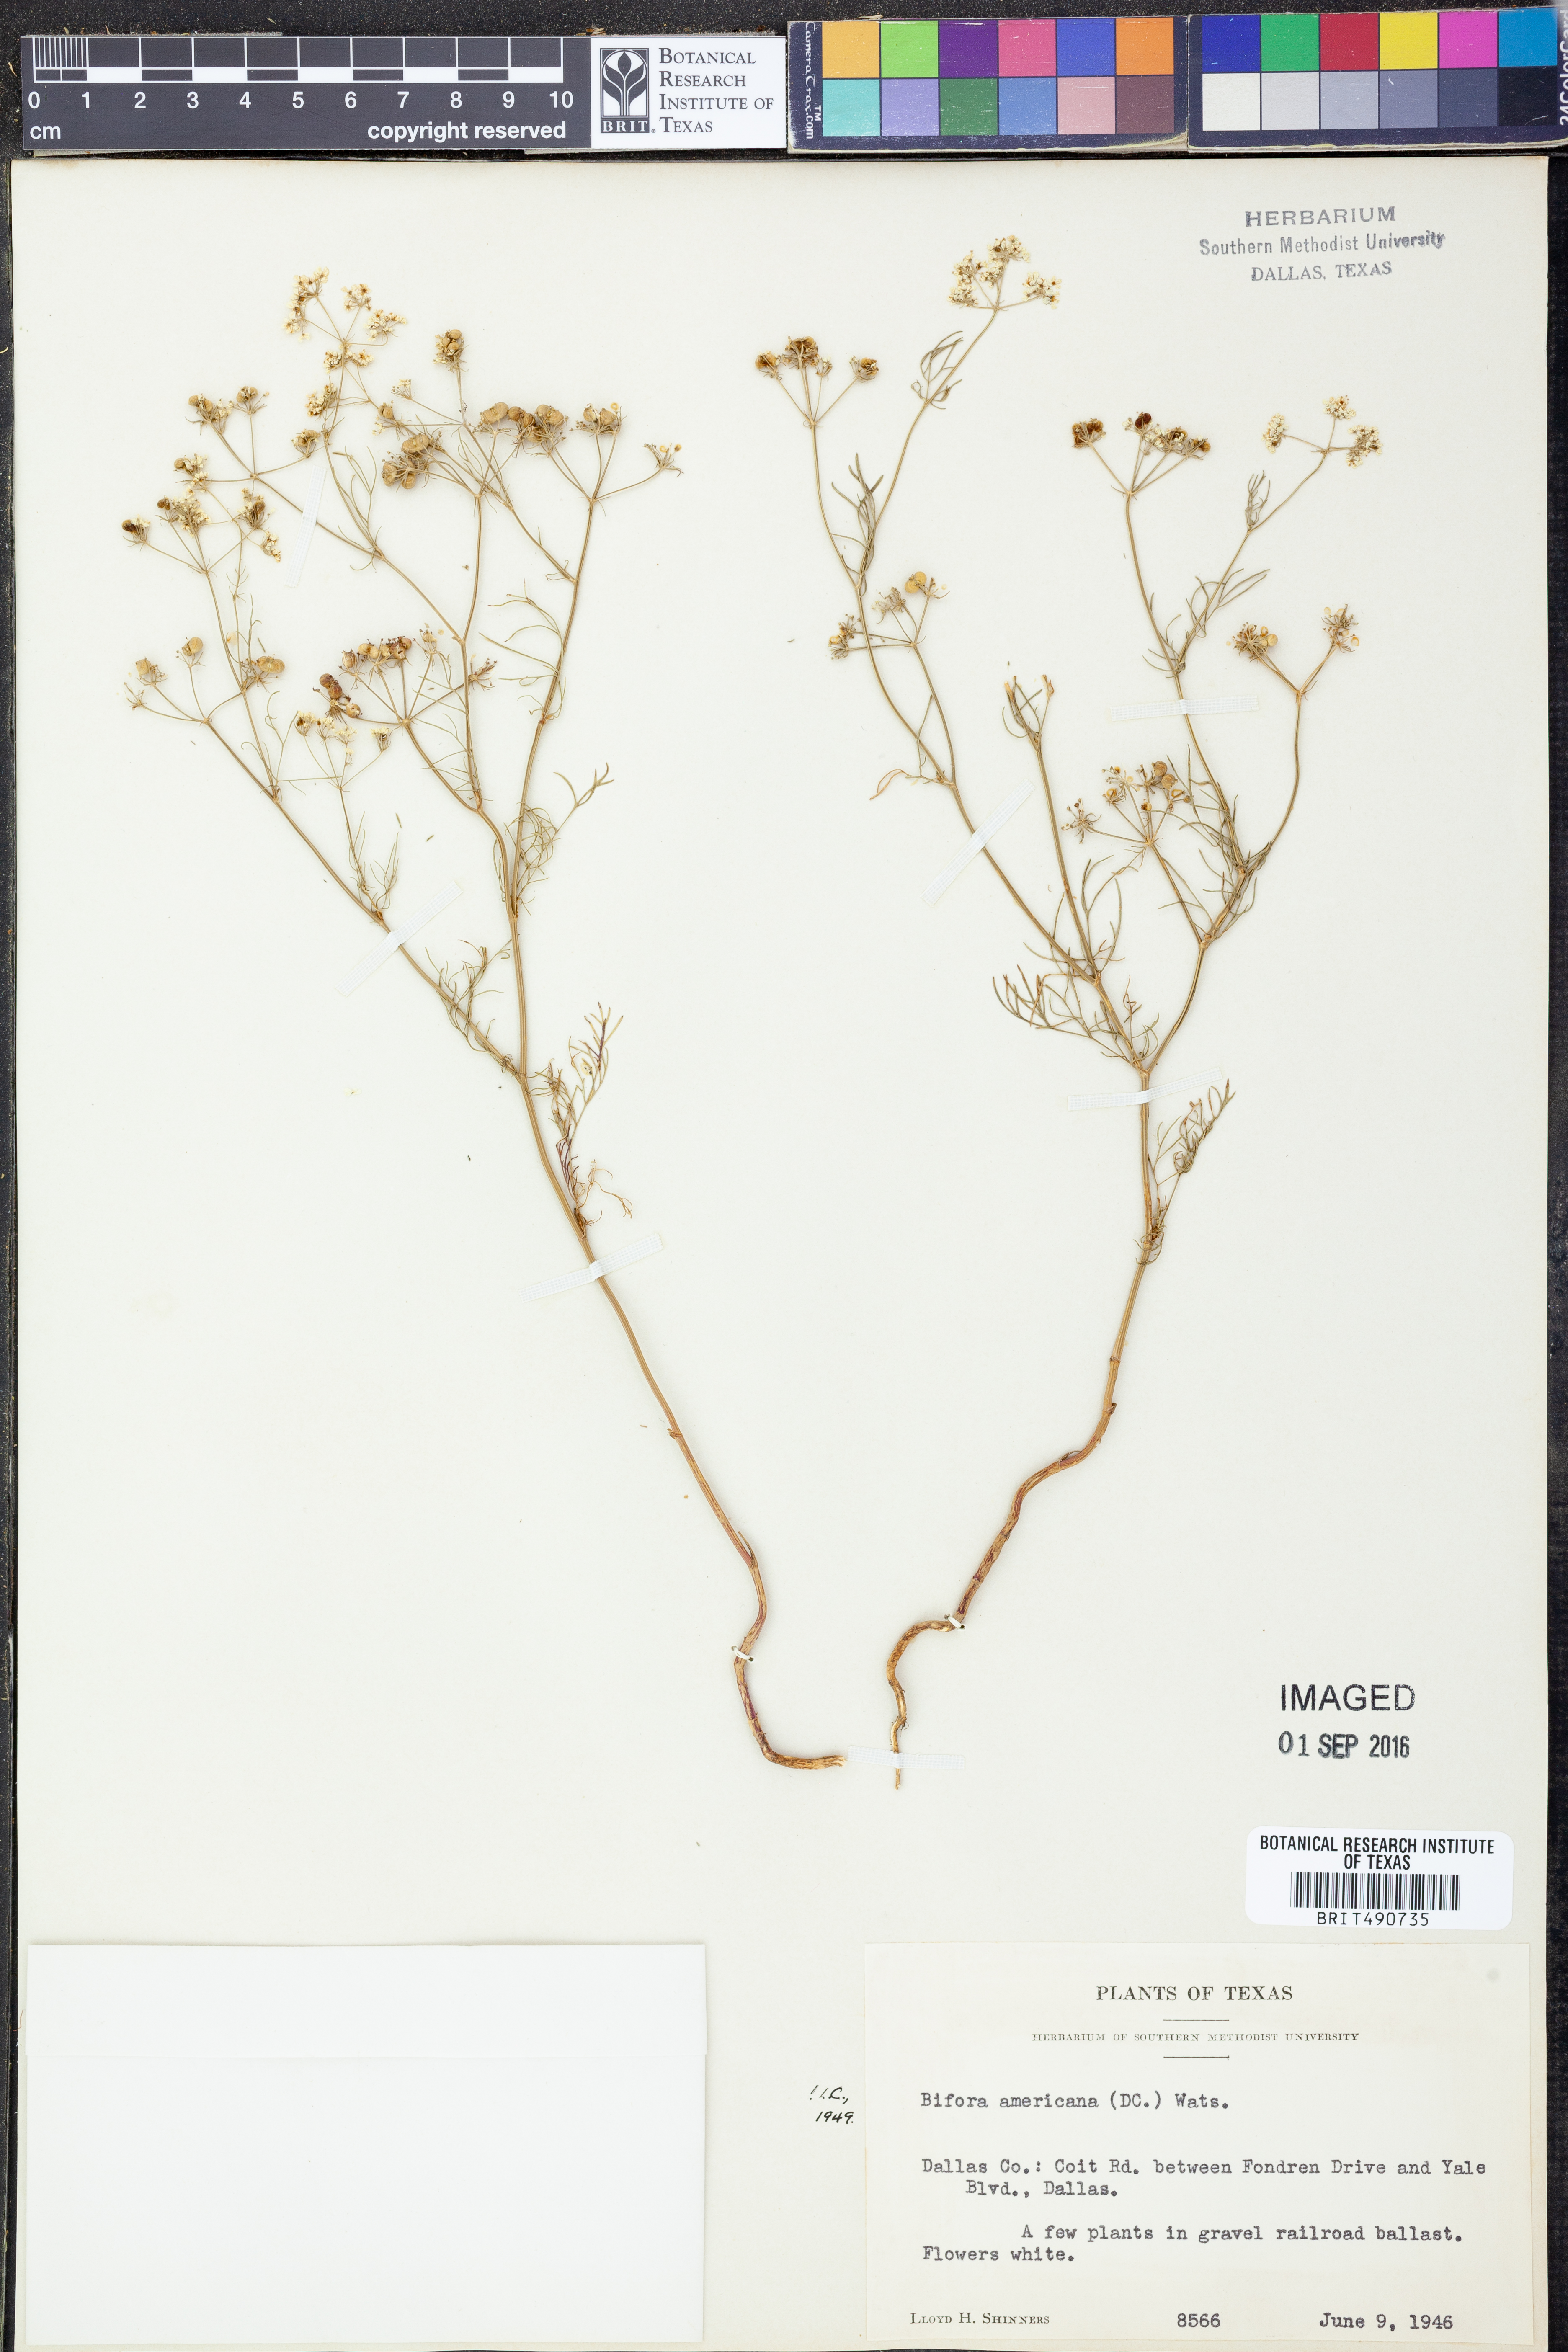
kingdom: Plantae
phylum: Tracheophyta
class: Magnoliopsida
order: Apiales
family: Apiaceae
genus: Atrema
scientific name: Atrema americanum
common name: Prairie-bishop
